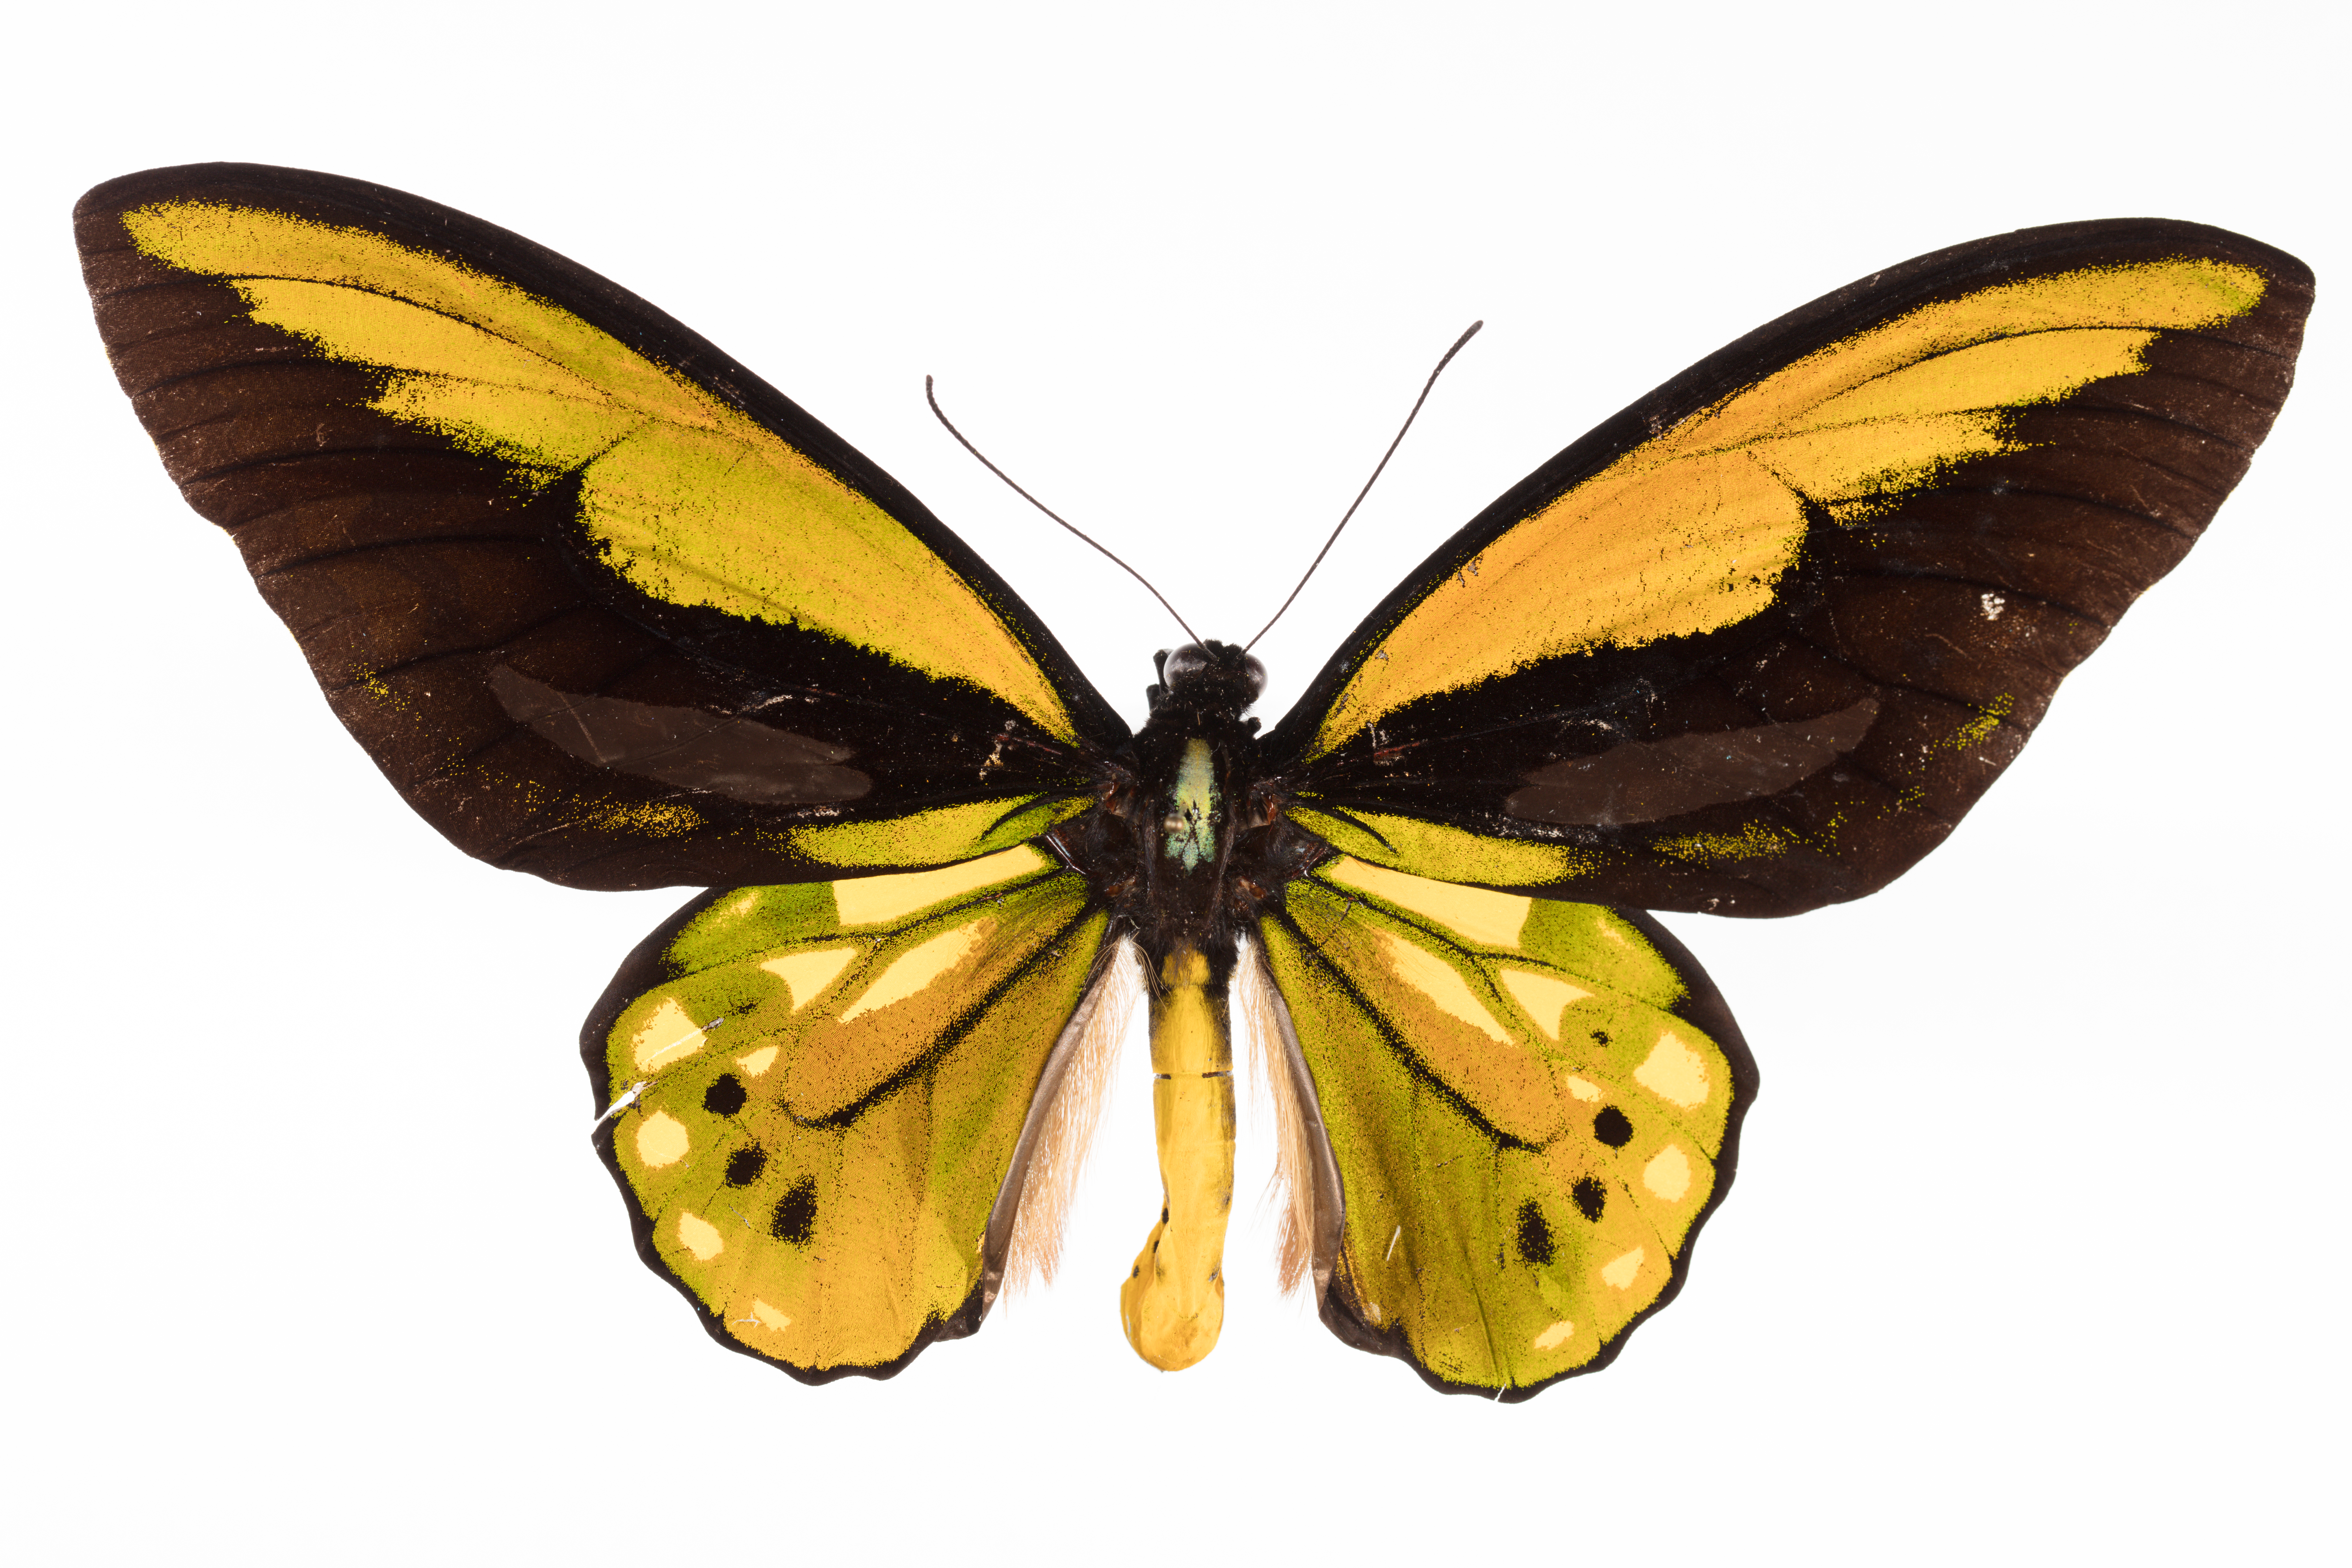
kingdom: Animalia
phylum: Arthropoda
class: Insecta
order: Lepidoptera
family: Papilionidae
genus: Ornithoptera
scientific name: Ornithoptera croesus
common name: Wallace's golden birdwing
